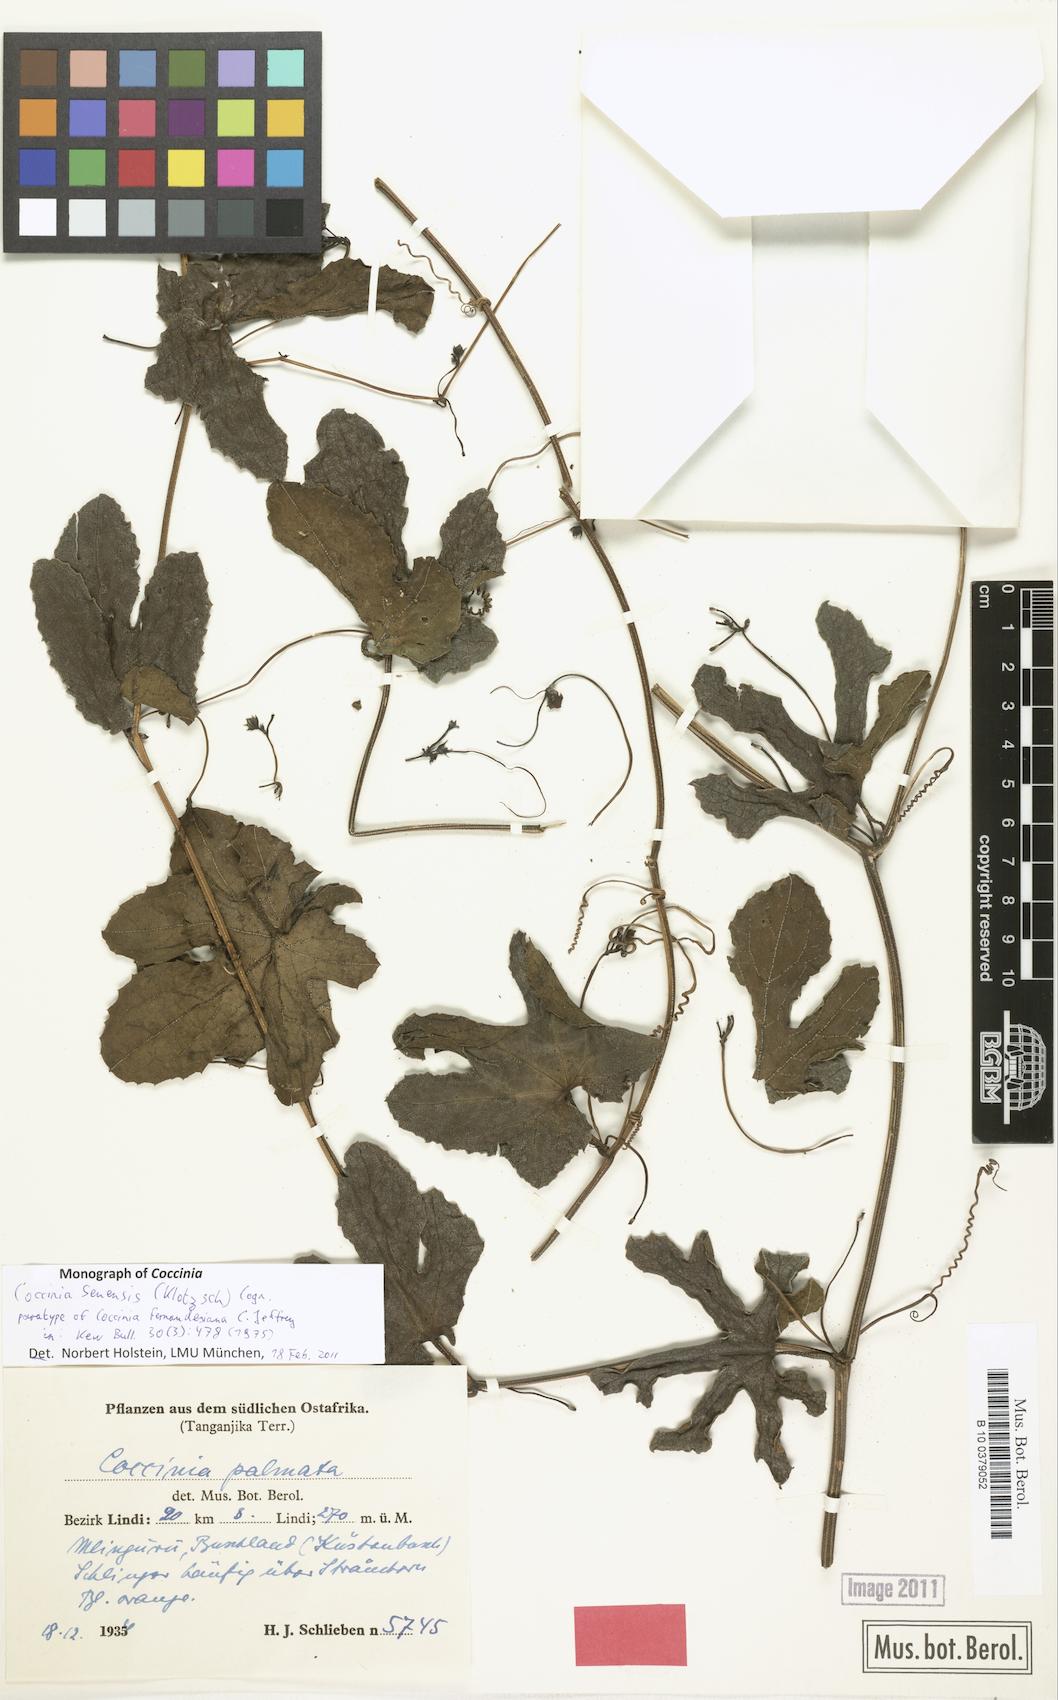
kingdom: Plantae
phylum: Tracheophyta
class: Magnoliopsida
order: Cucurbitales
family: Cucurbitaceae
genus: Coccinia
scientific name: Coccinia senensis
